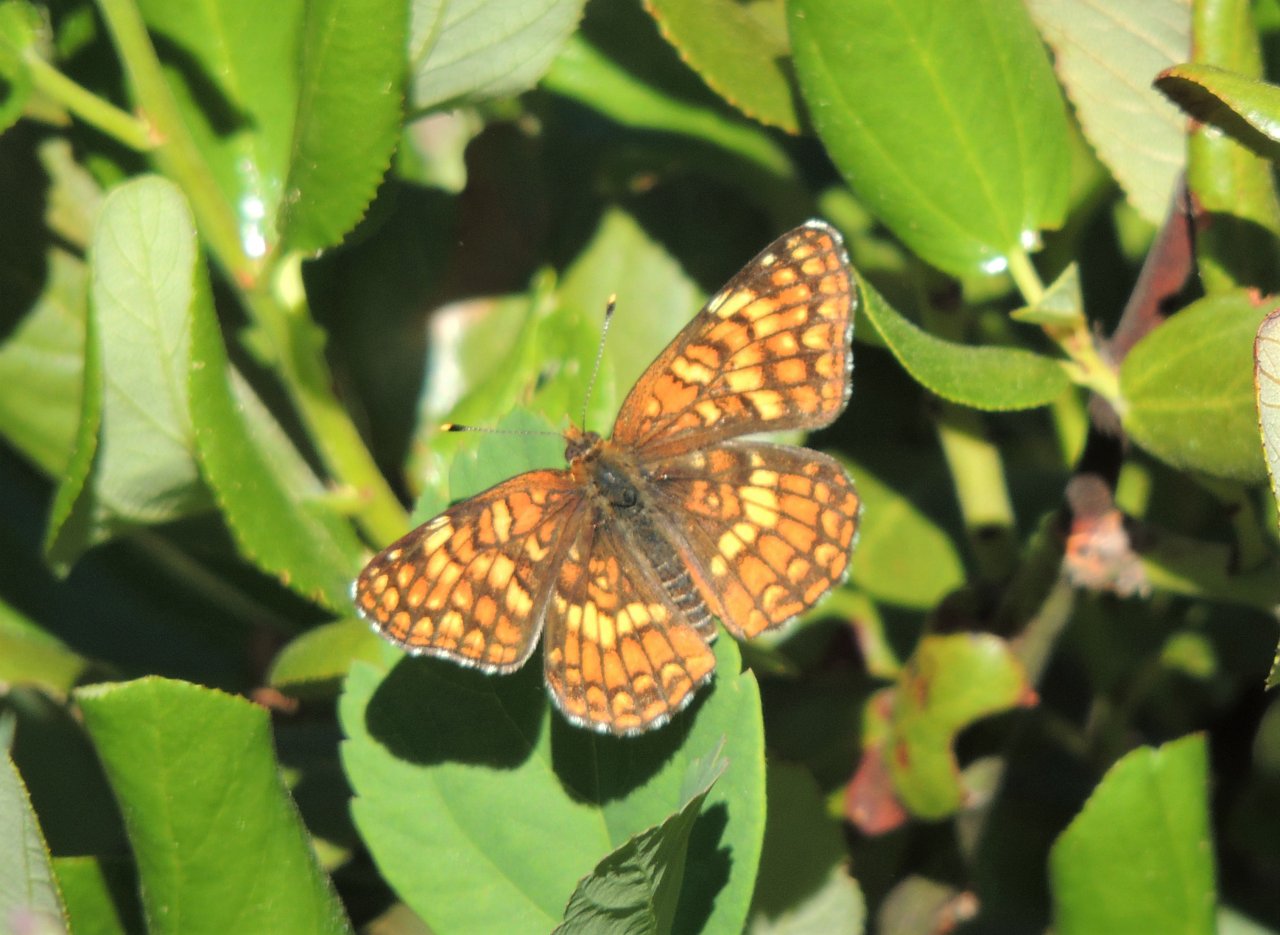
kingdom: Animalia
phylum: Arthropoda
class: Insecta
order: Lepidoptera
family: Nymphalidae
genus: Chlosyne
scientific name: Chlosyne palla
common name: Northern Checkerspot
